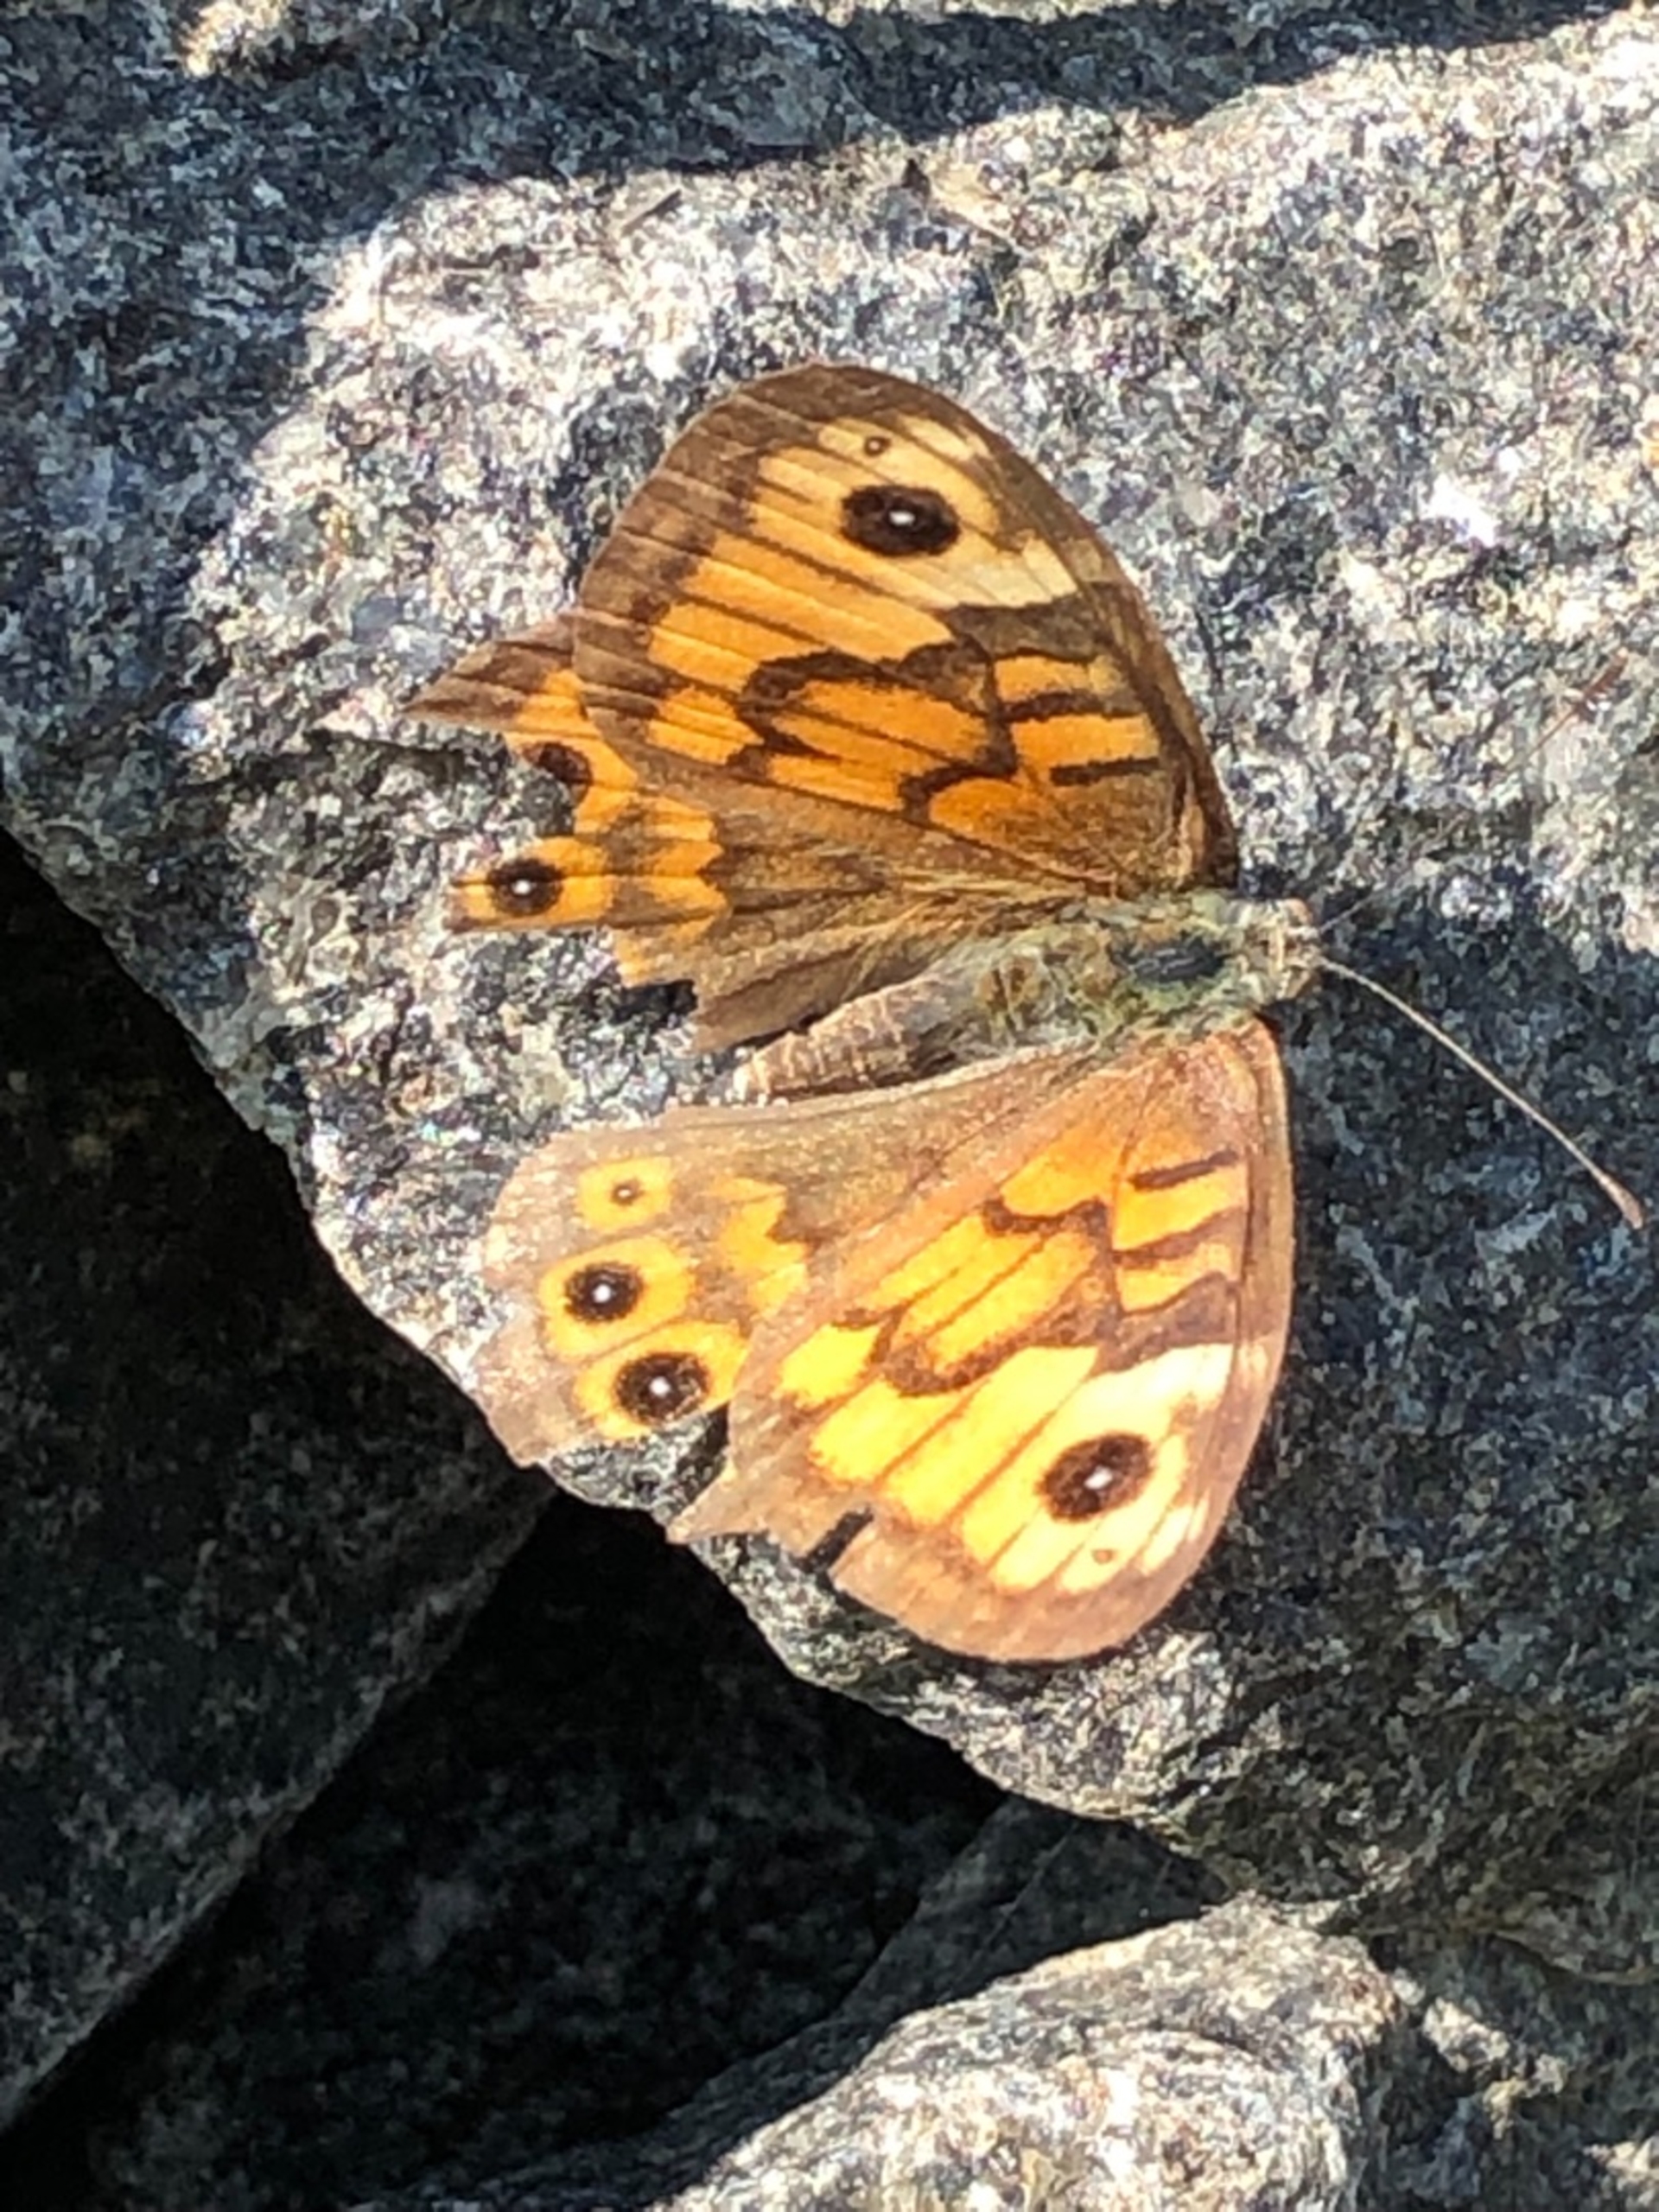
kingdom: Animalia
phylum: Arthropoda
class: Insecta
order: Lepidoptera
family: Nymphalidae
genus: Pararge
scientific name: Pararge Lasiommata megera
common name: Vejrandøje
